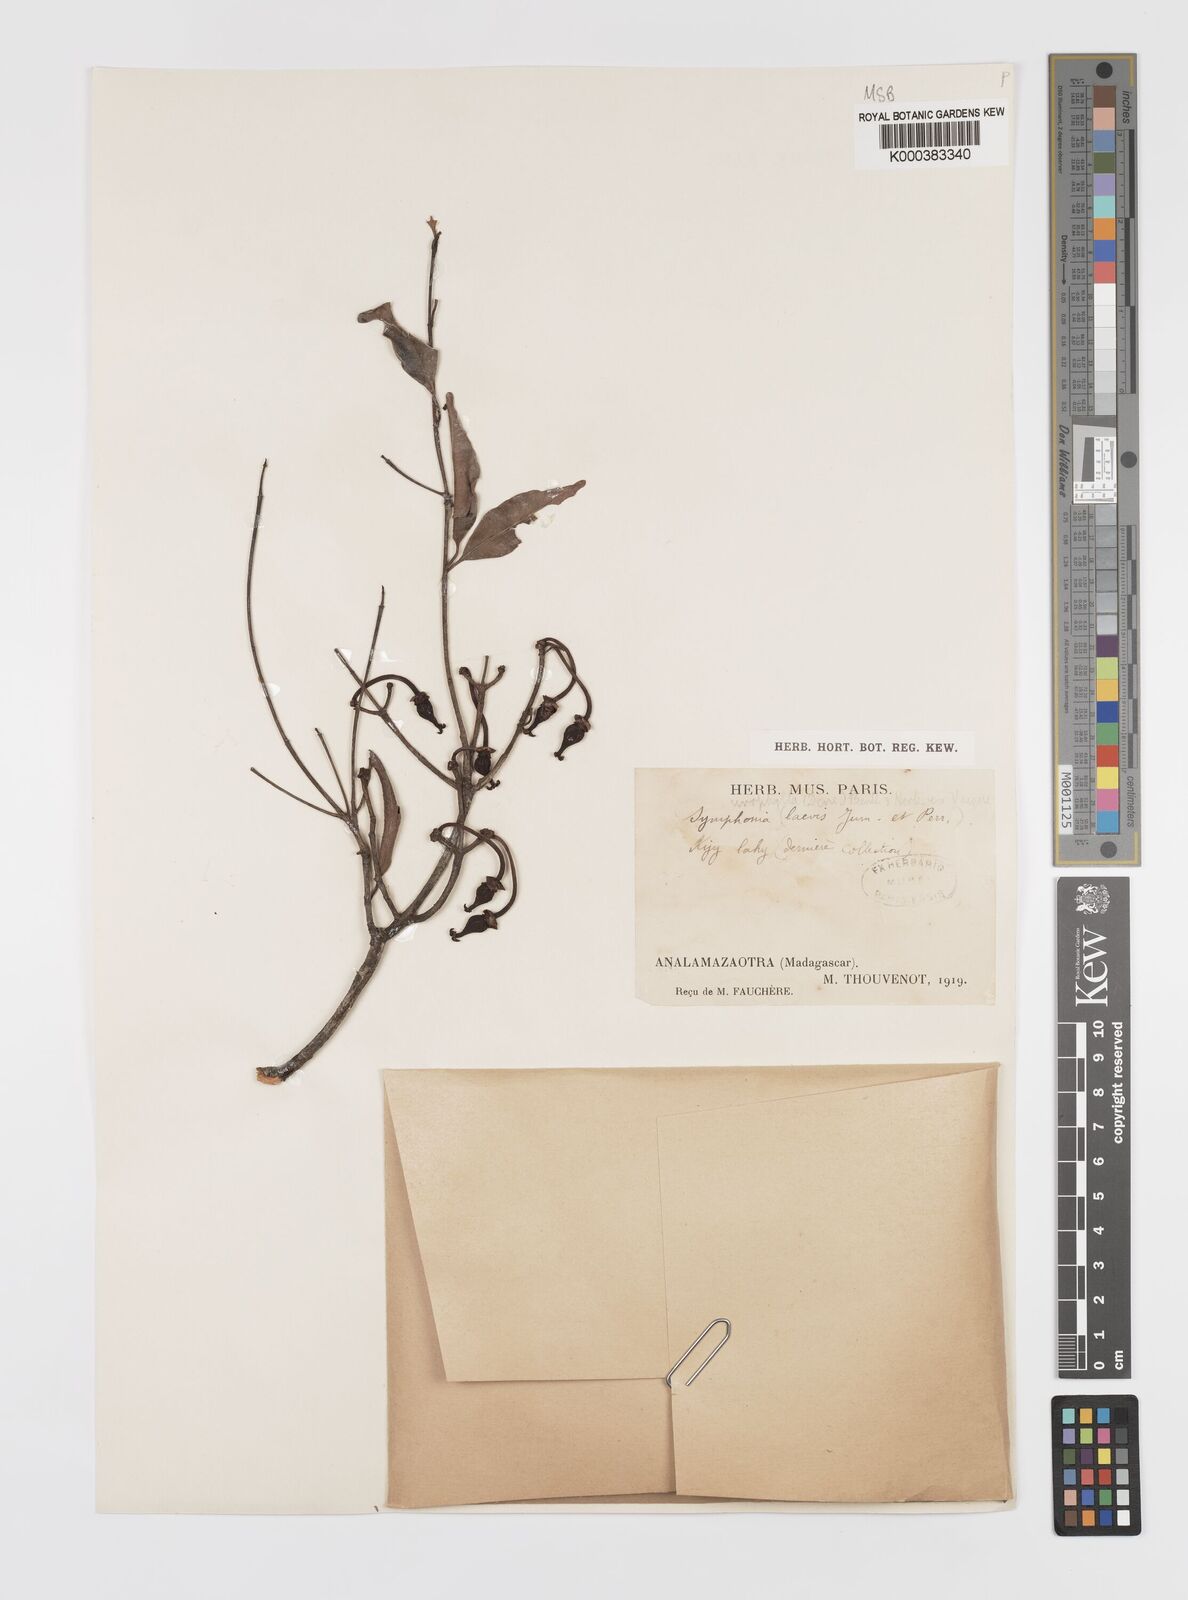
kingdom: Plantae
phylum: Tracheophyta
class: Magnoliopsida
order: Malpighiales
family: Clusiaceae
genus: Garcinia
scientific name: Garcinia
